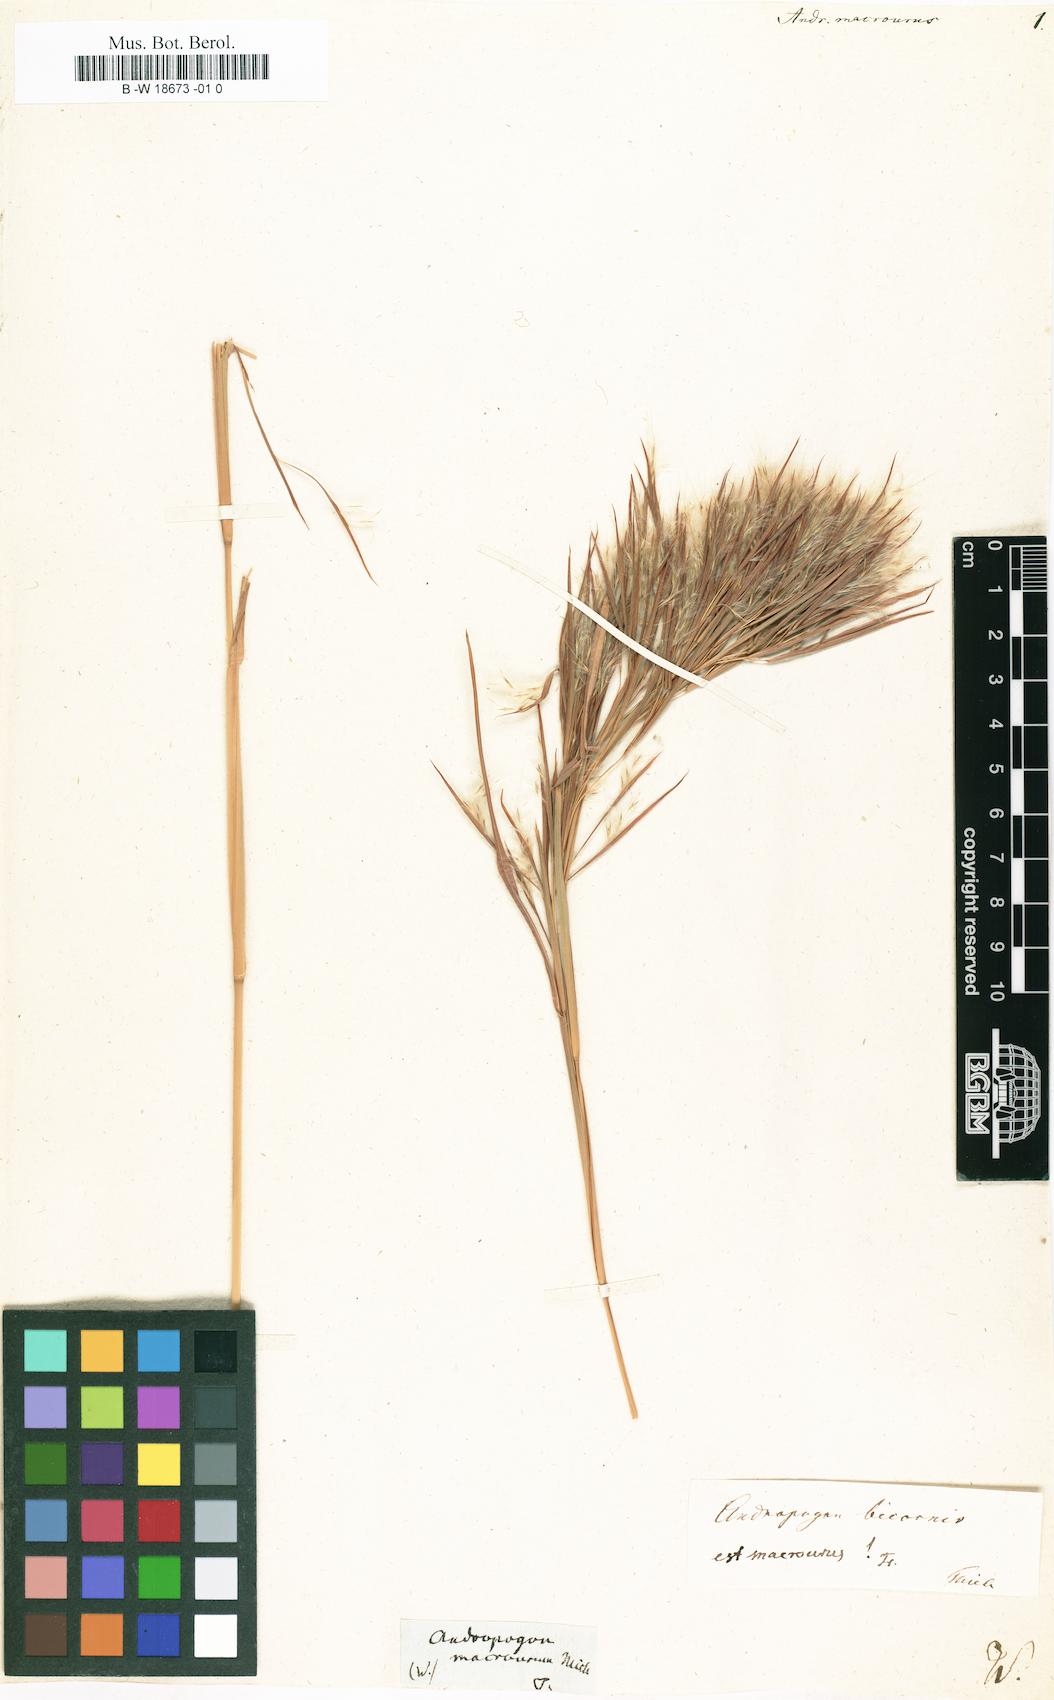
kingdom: Plantae
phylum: Tracheophyta
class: Liliopsida
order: Poales
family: Poaceae
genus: Andropogon
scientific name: Andropogon glomeratus
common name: Bushy beard grass
